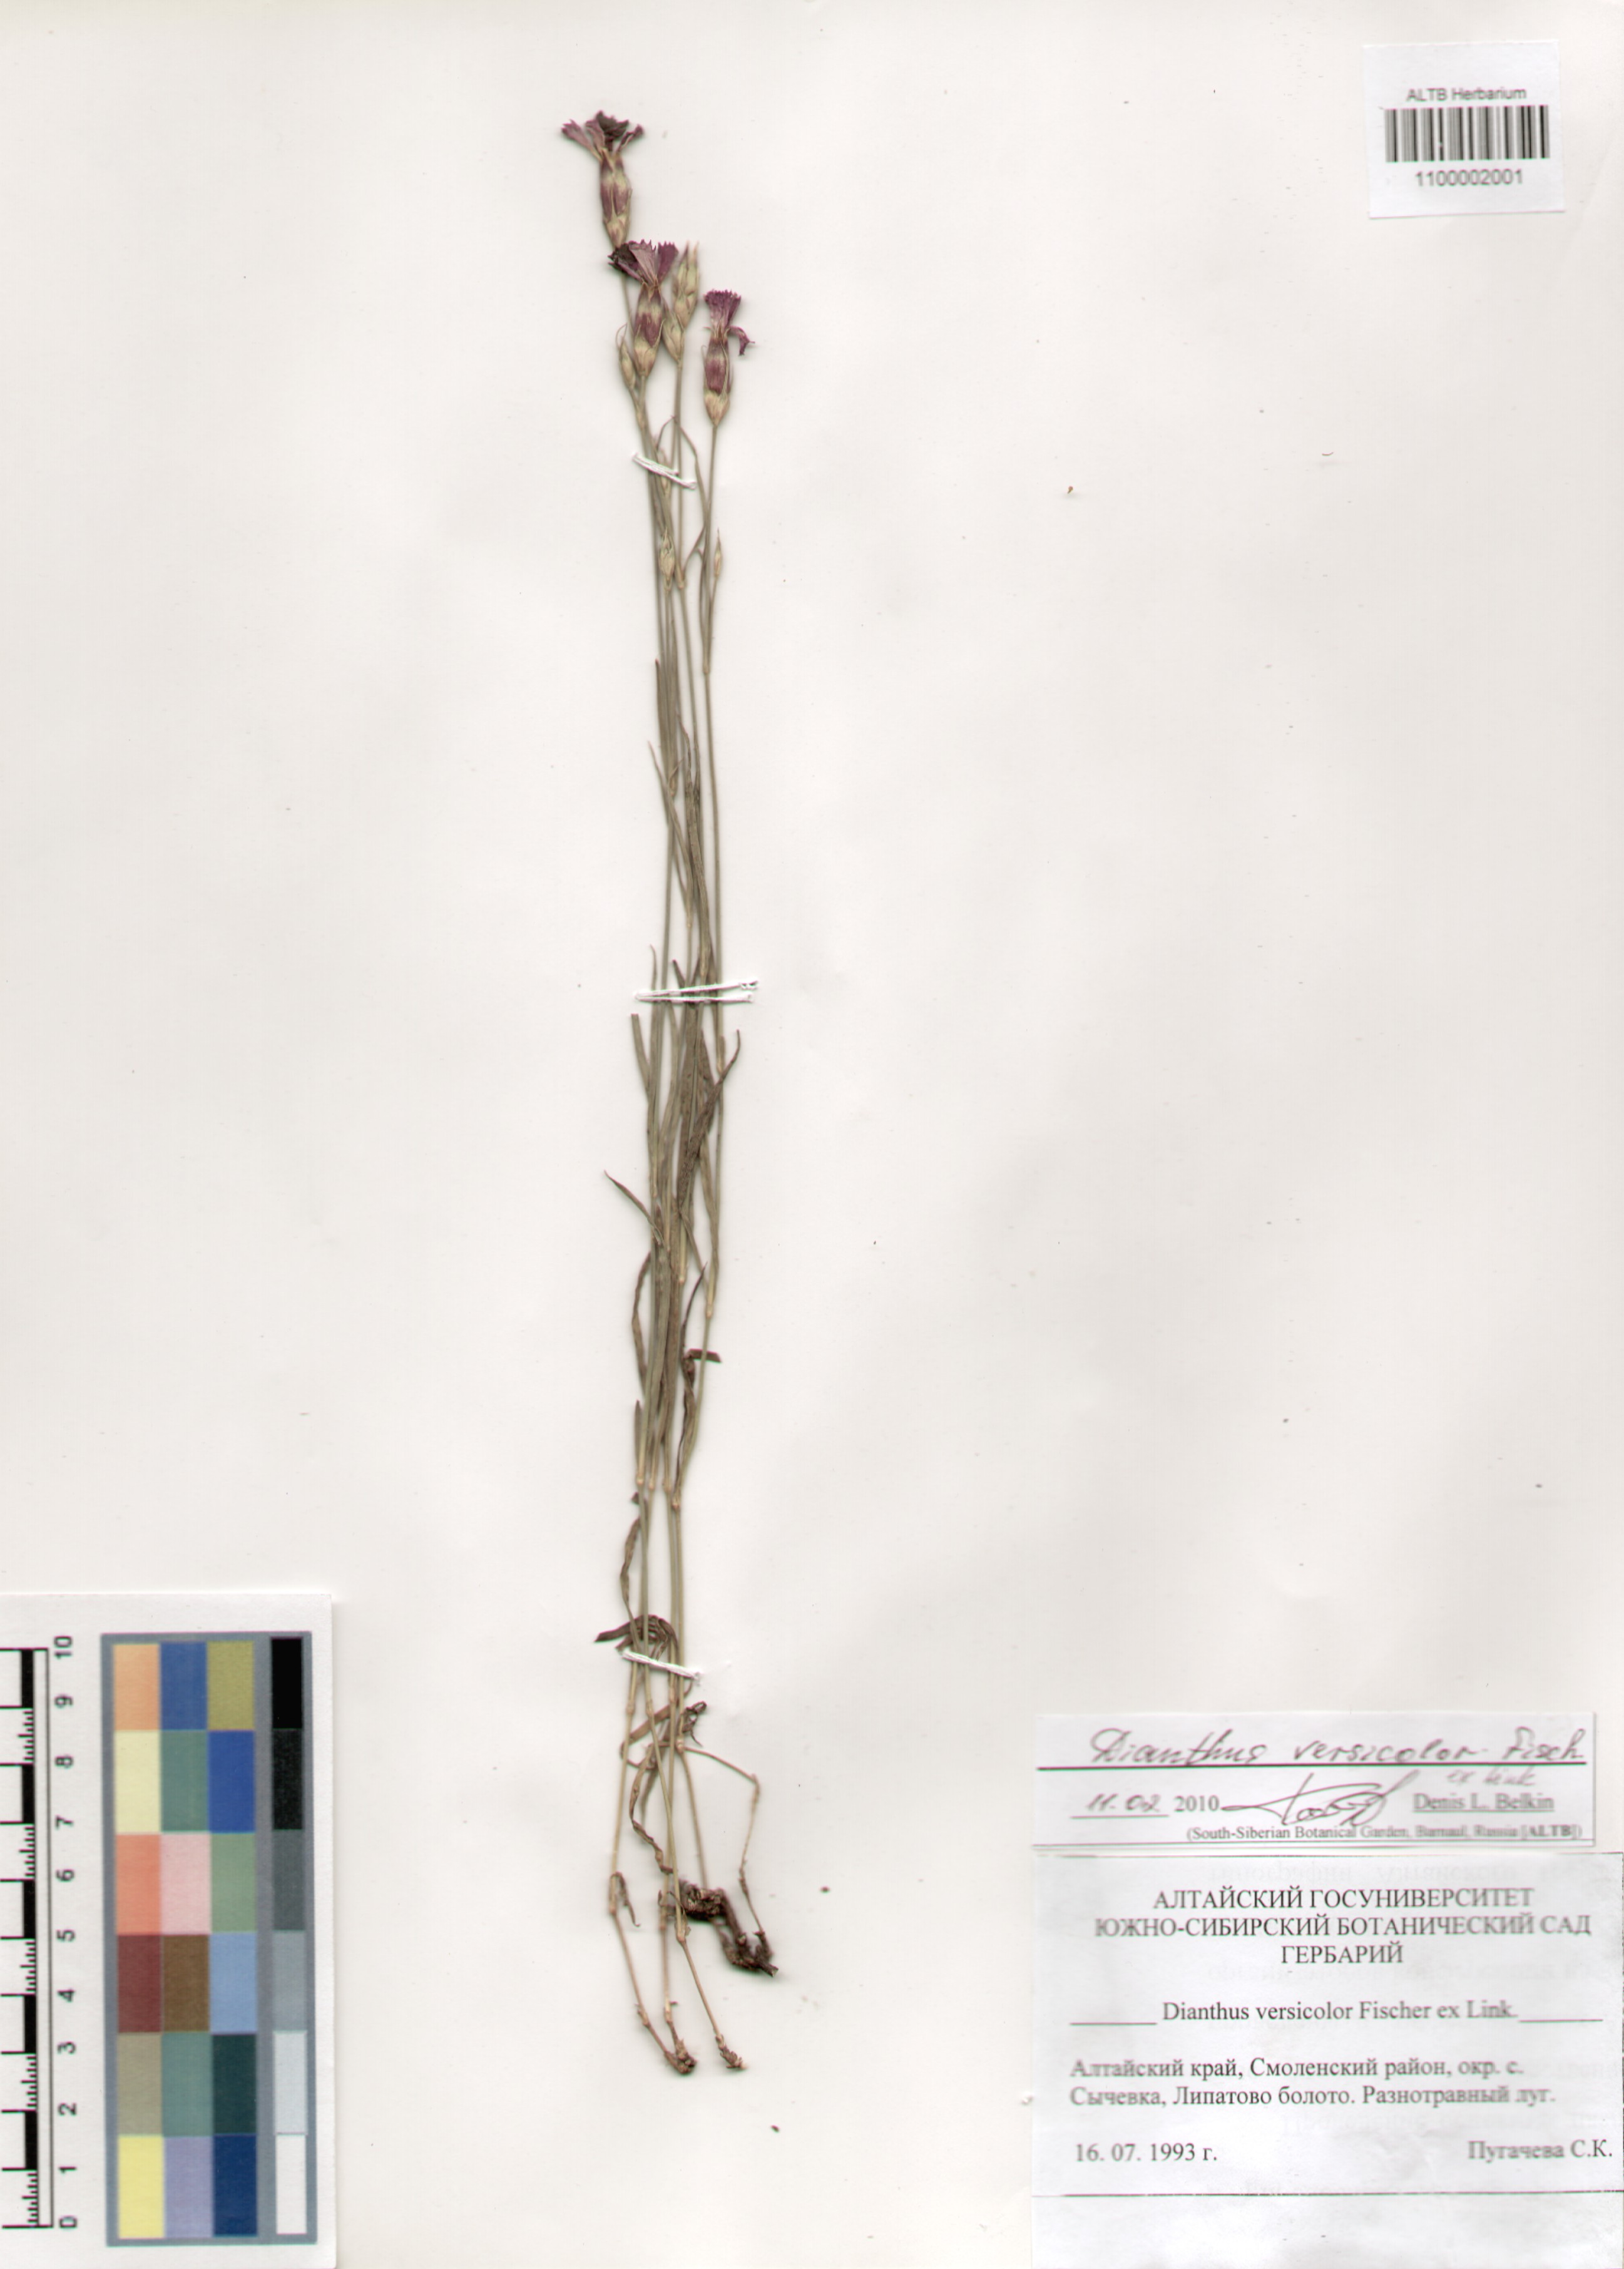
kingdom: Plantae
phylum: Tracheophyta
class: Magnoliopsida
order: Caryophyllales
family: Caryophyllaceae
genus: Dianthus
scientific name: Dianthus chinensis
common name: Rainbow pink
